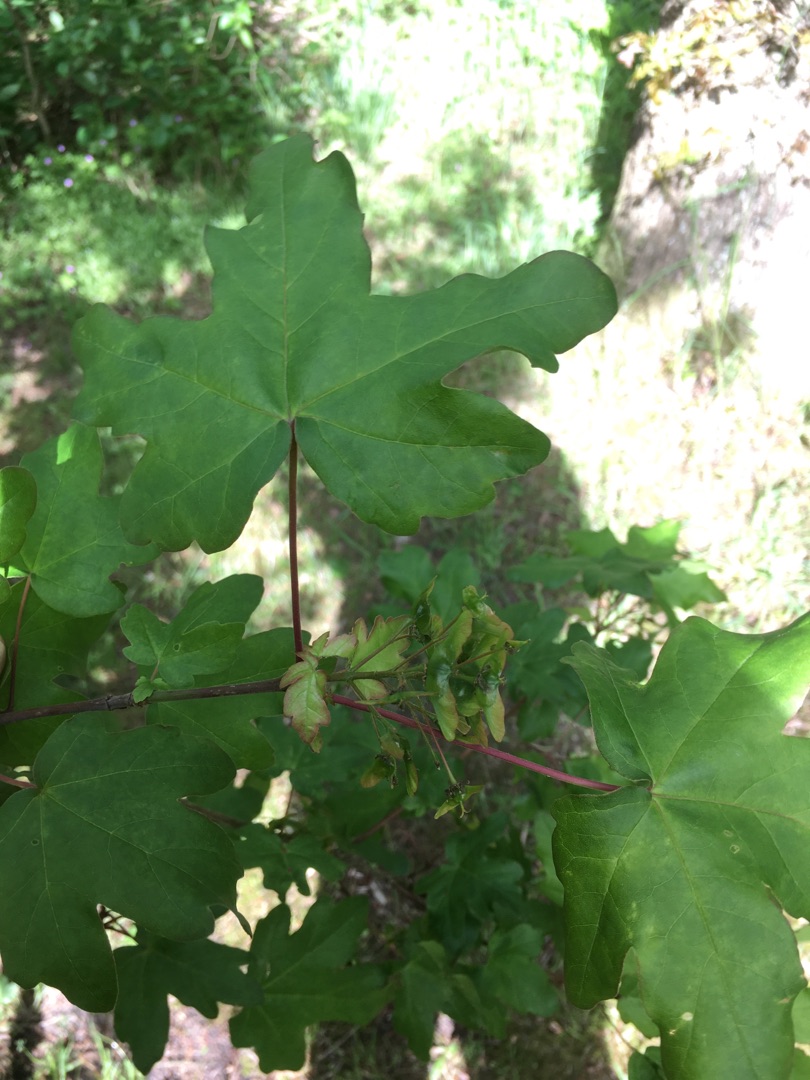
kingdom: Plantae
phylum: Tracheophyta
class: Magnoliopsida
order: Sapindales
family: Sapindaceae
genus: Acer
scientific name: Acer campestre
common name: Navr
